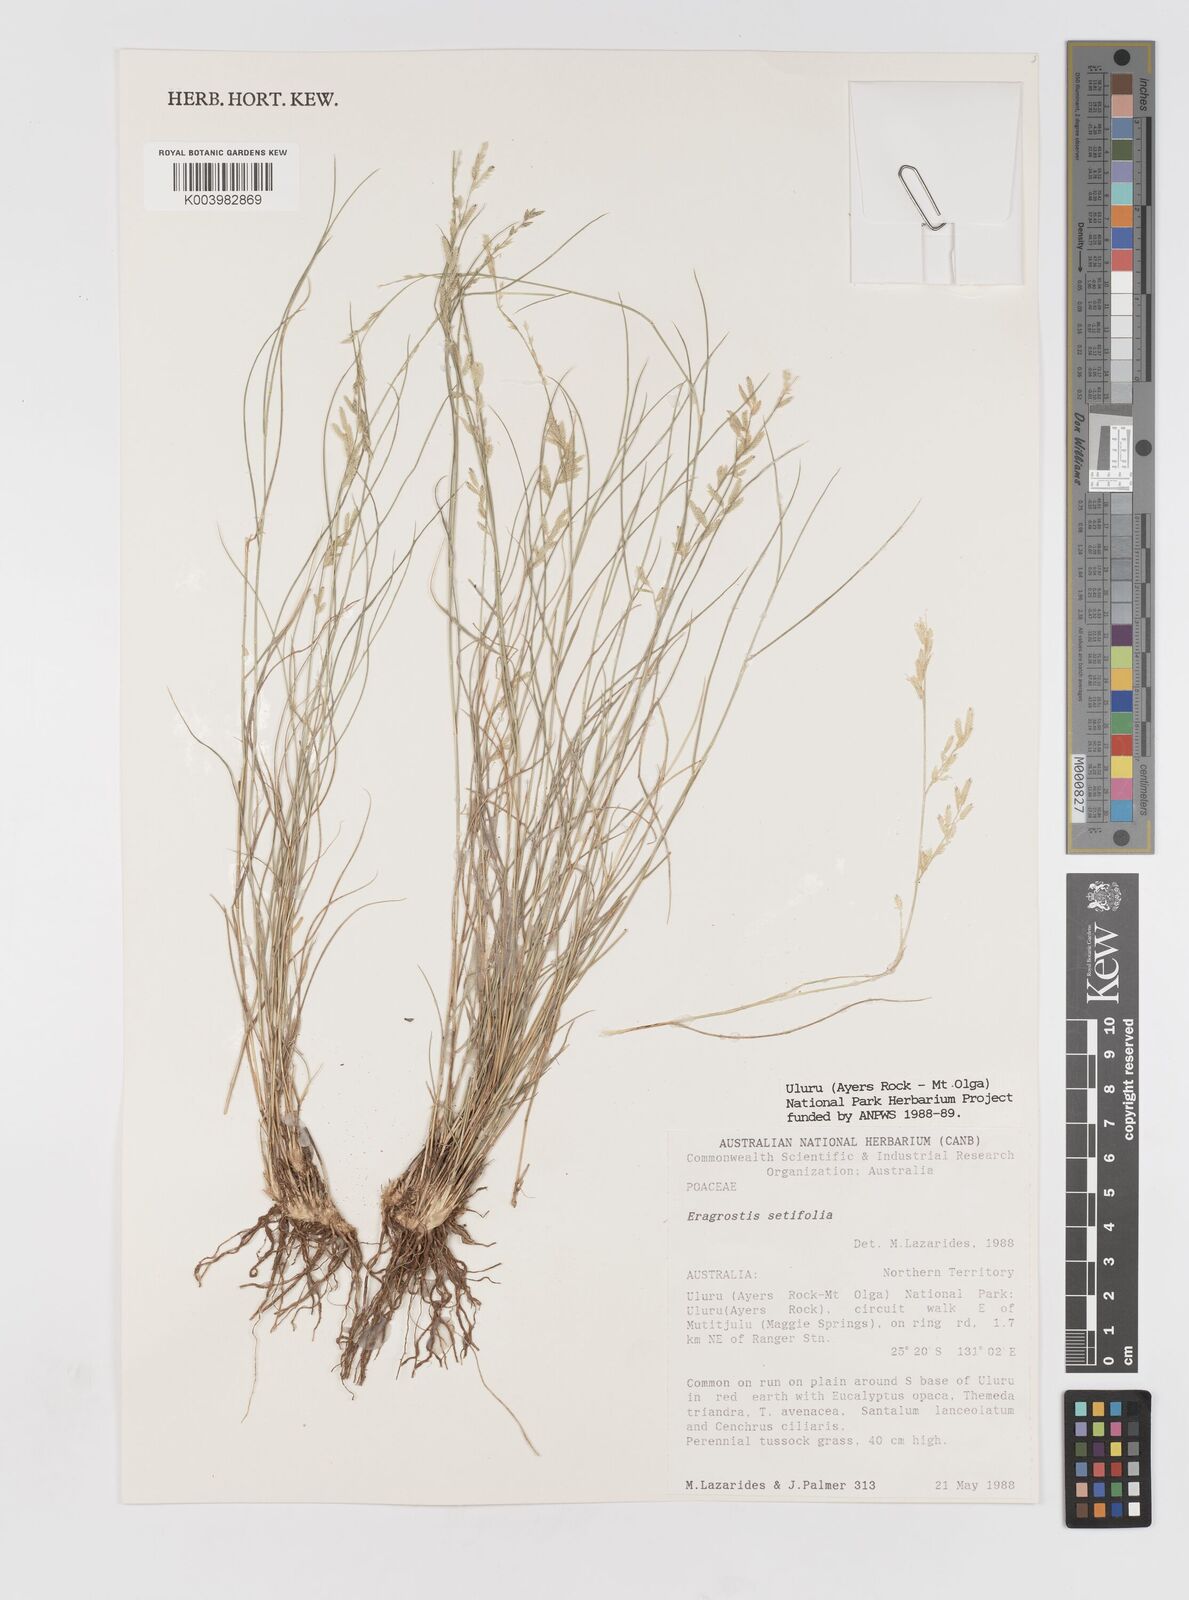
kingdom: Plantae
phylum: Tracheophyta
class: Liliopsida
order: Poales
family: Poaceae
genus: Eragrostis
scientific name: Eragrostis setifolia
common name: Bristleleaf lovegrass
